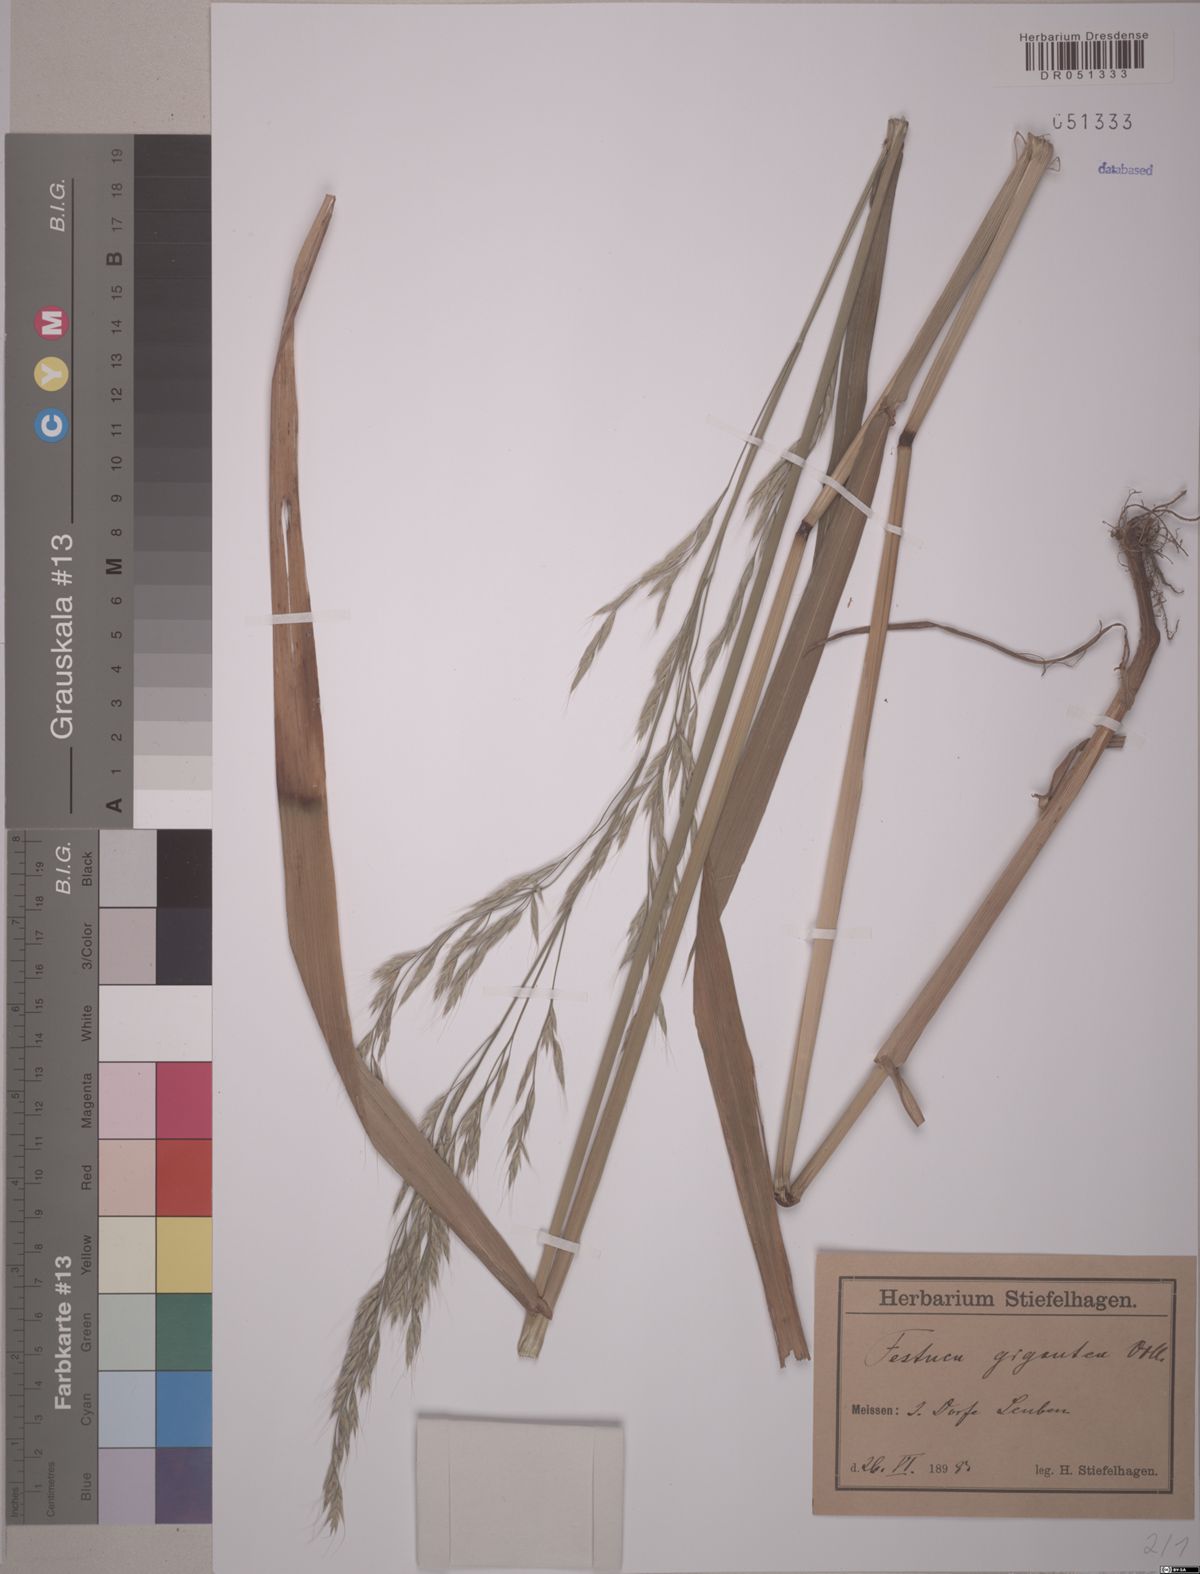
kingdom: Plantae
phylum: Tracheophyta
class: Liliopsida
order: Poales
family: Poaceae
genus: Lolium
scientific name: Lolium giganteum
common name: Giant fescue
